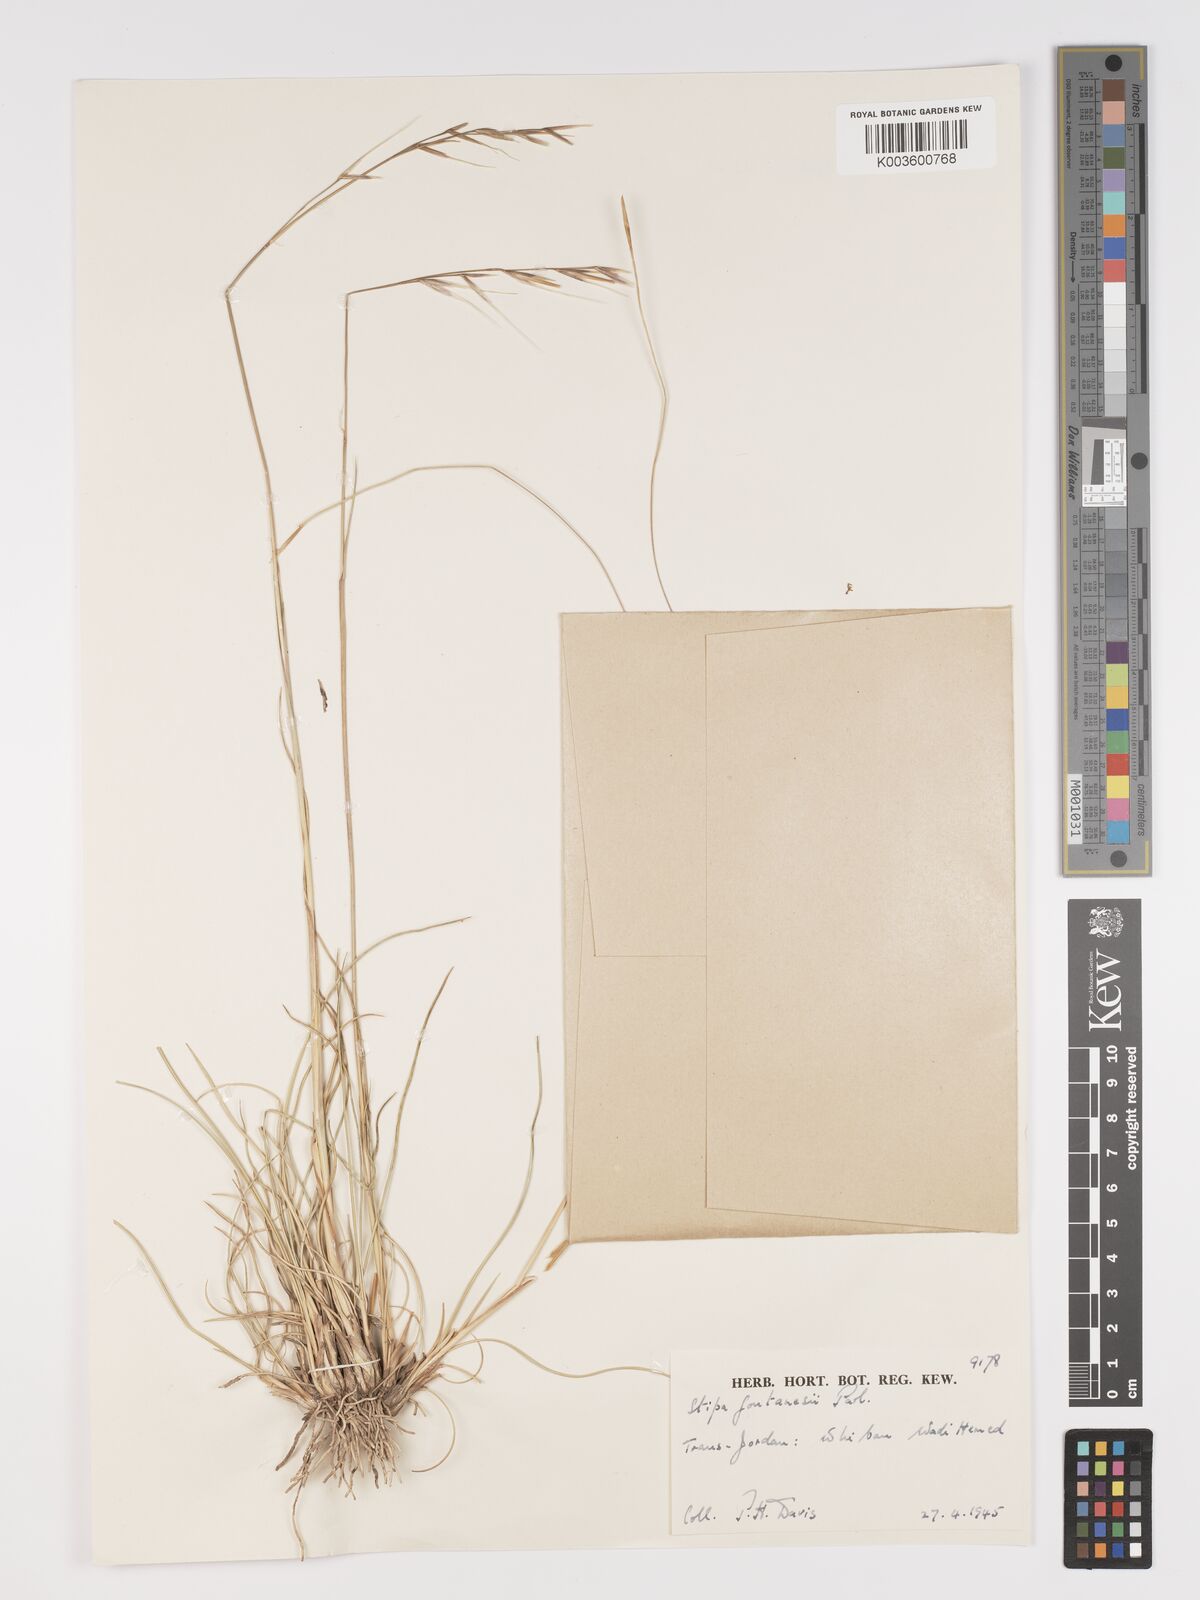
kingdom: Plantae
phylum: Tracheophyta
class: Liliopsida
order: Poales
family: Poaceae
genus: Stipa
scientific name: Stipa lagascae
